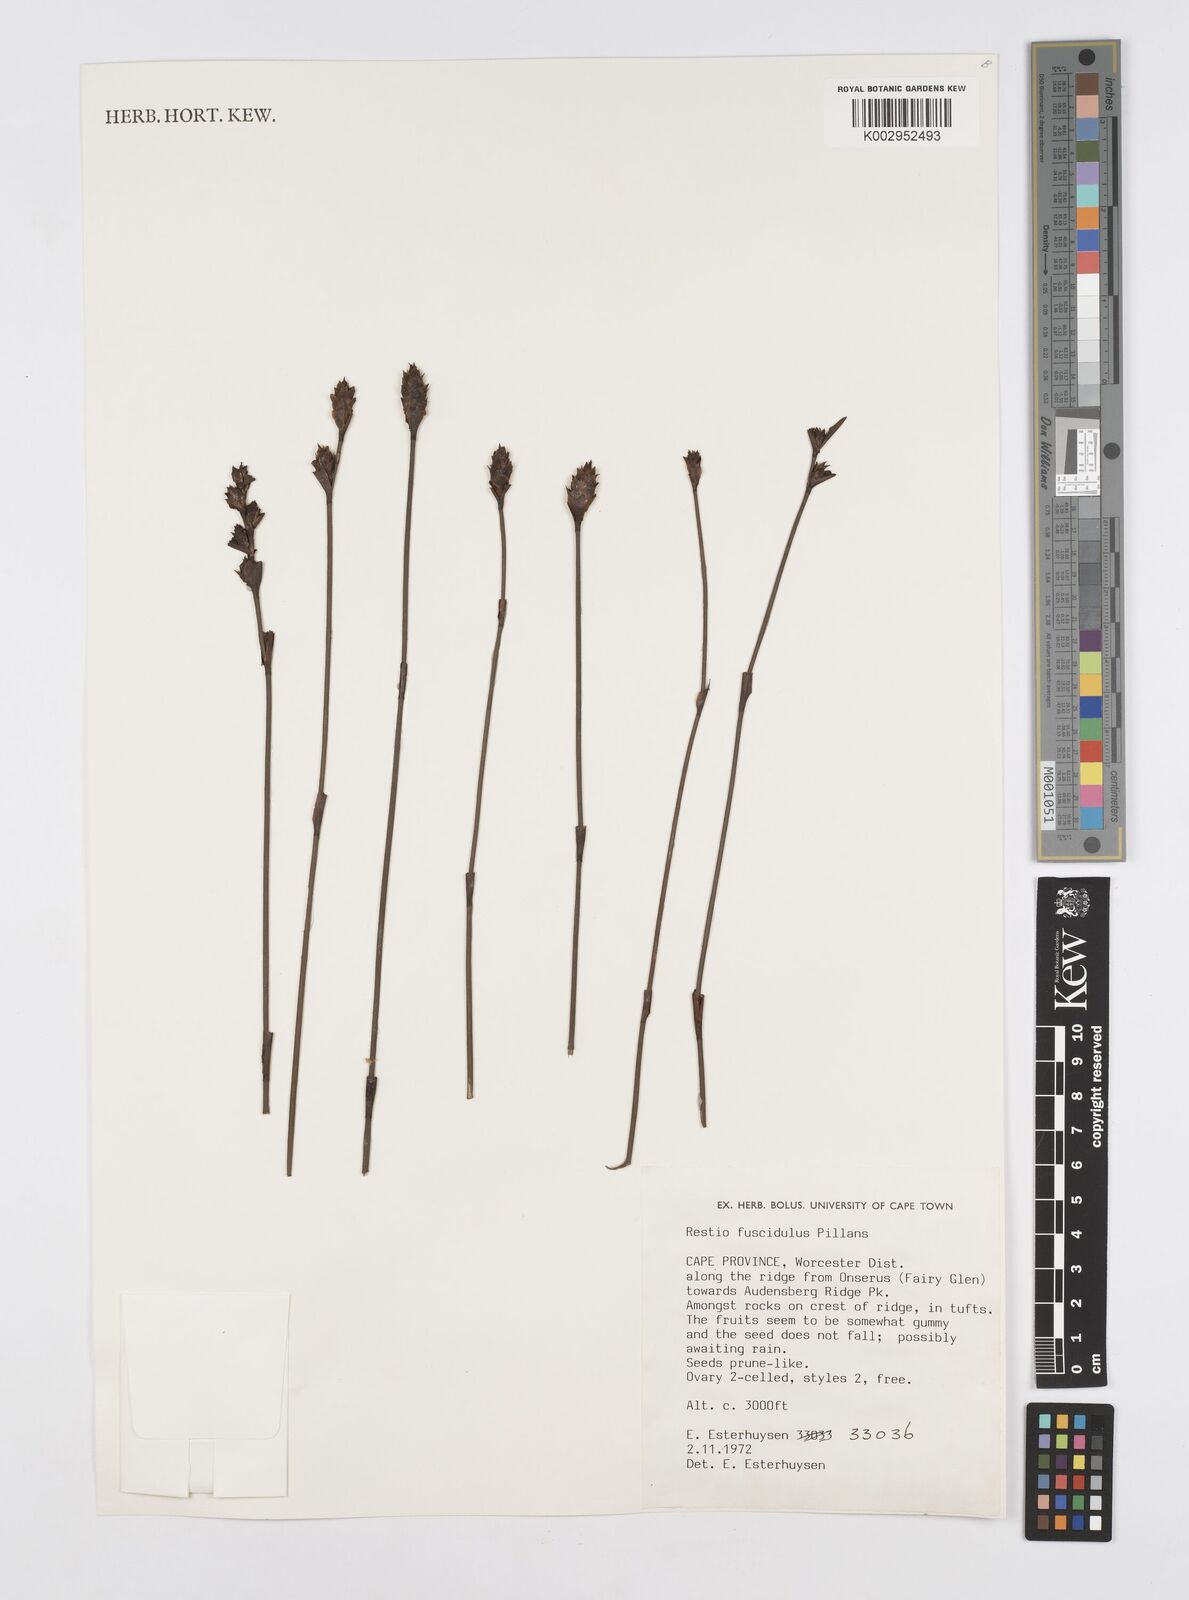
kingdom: Plantae
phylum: Tracheophyta
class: Liliopsida
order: Poales
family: Restionaceae
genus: Restio
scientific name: Restio fuscidulus
